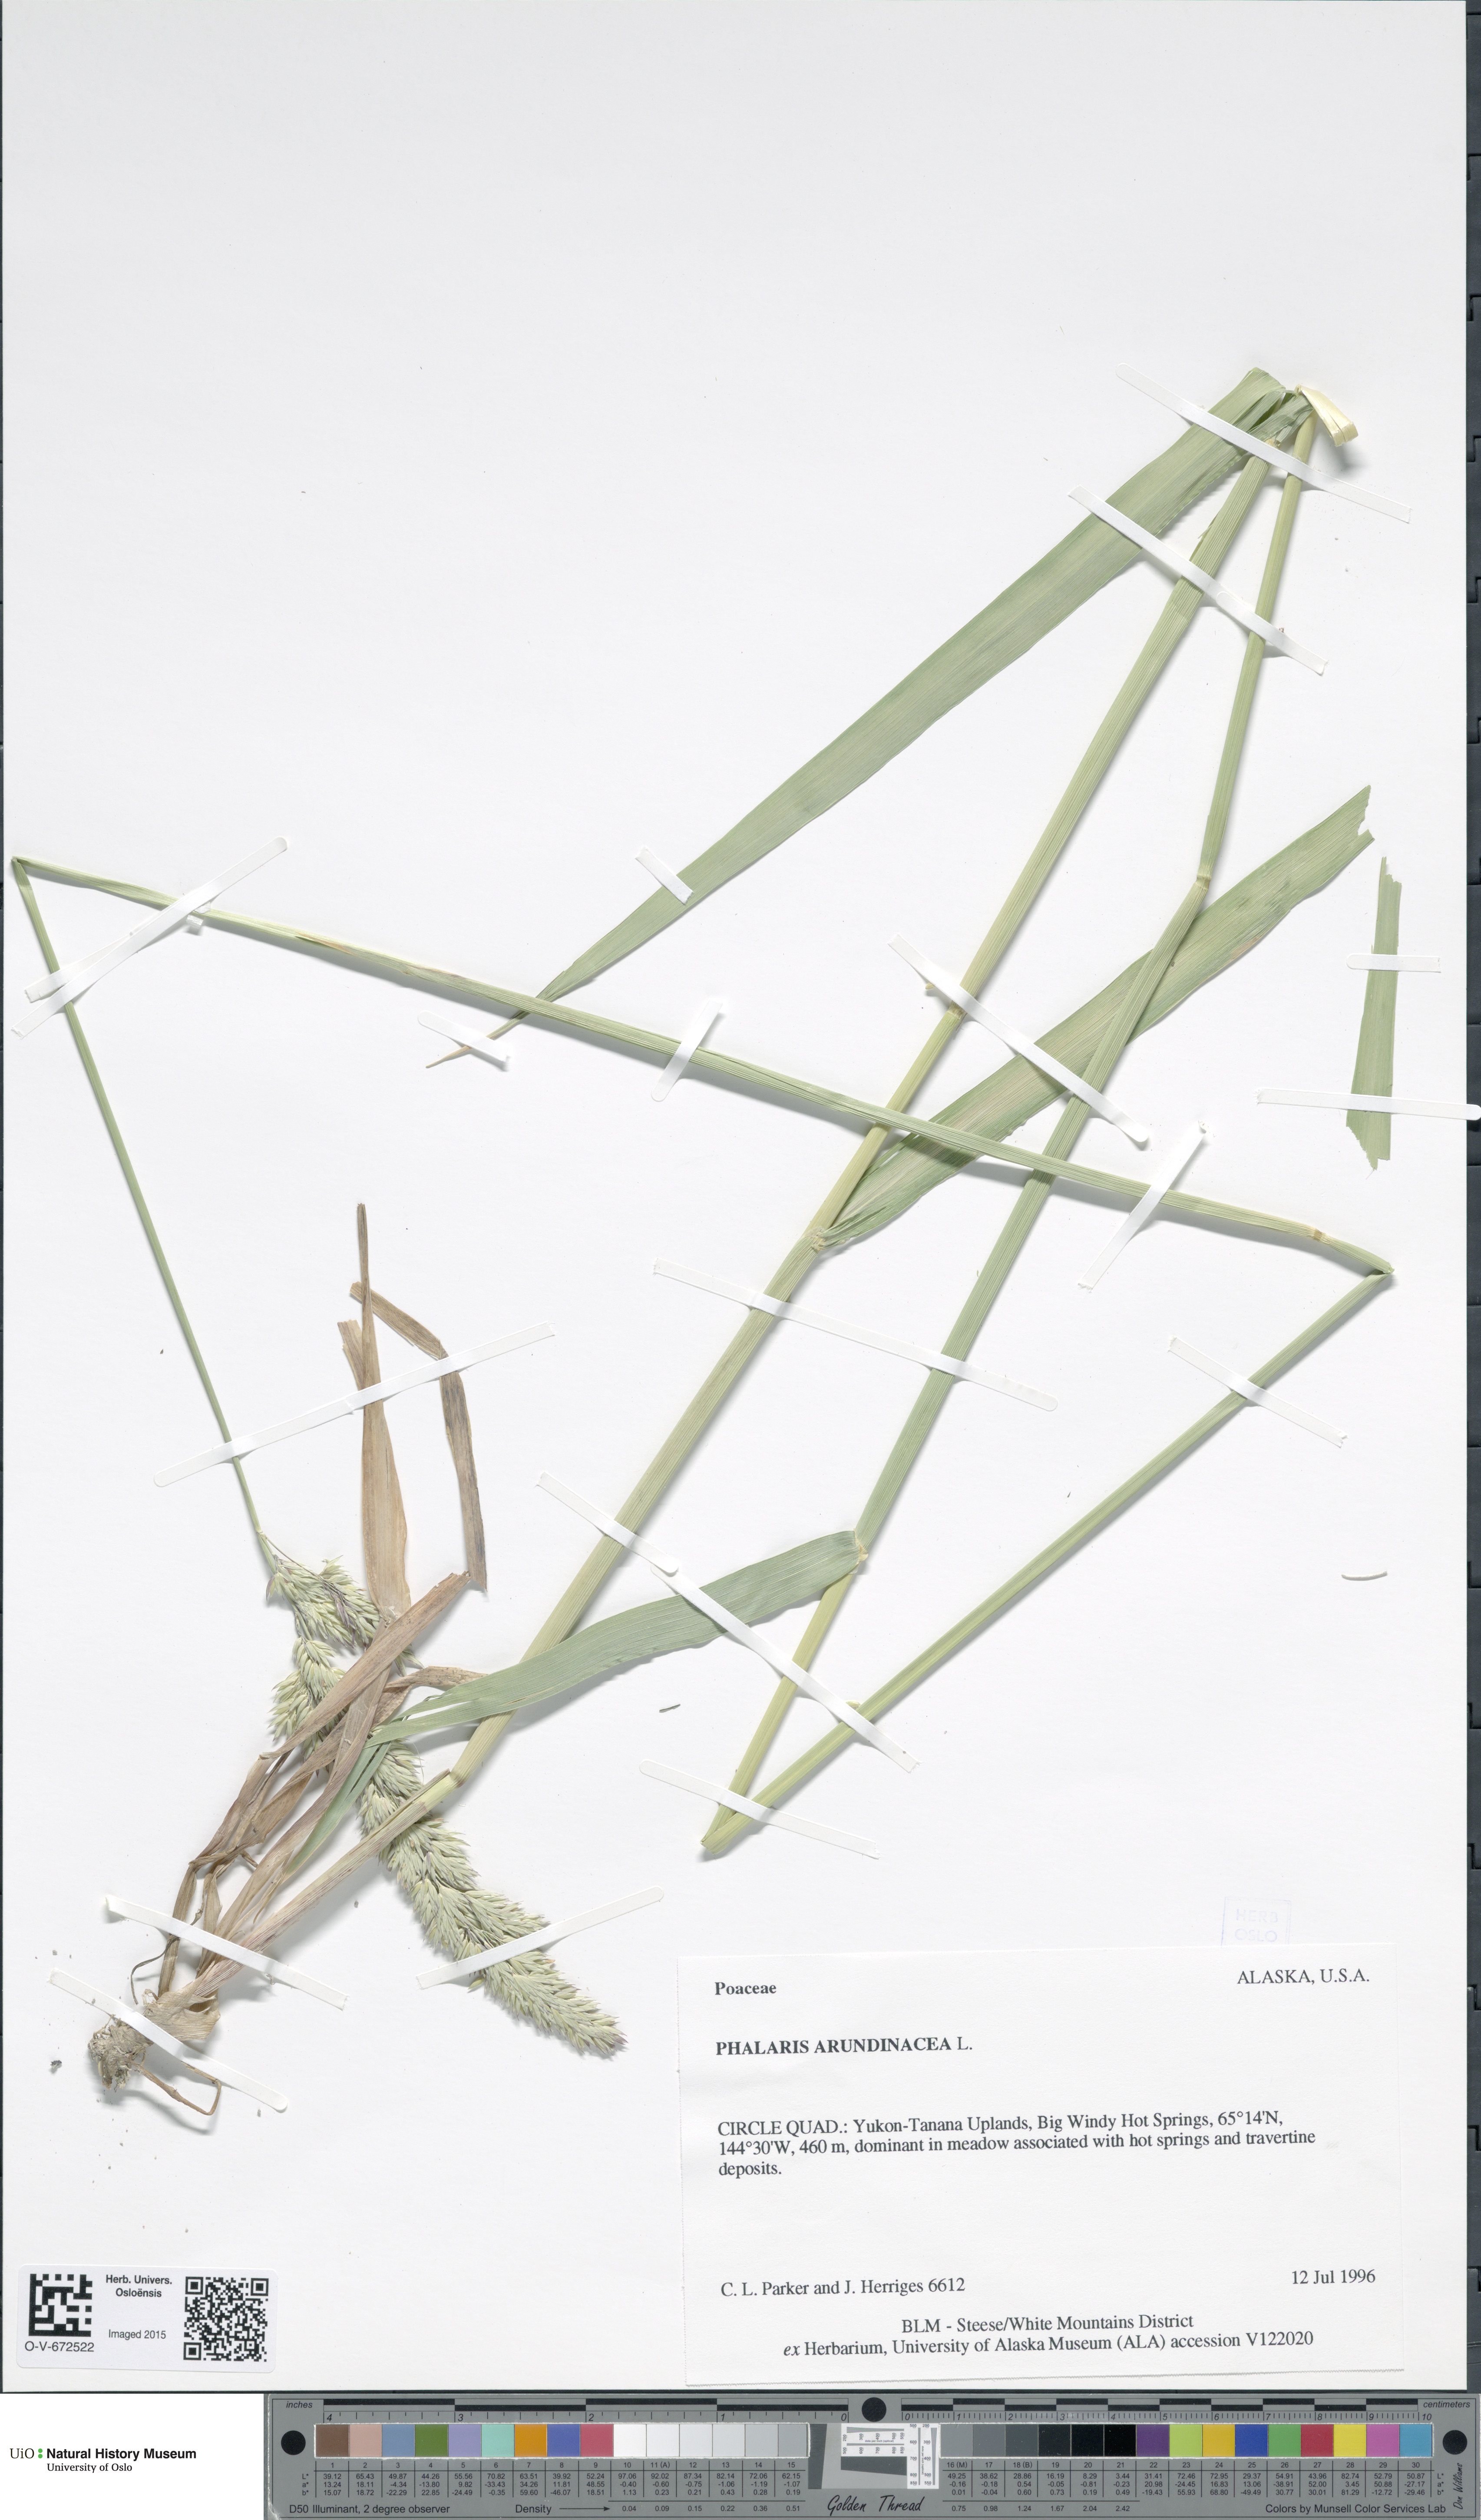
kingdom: Plantae
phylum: Tracheophyta
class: Liliopsida
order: Poales
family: Poaceae
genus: Phalaris
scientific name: Phalaris arundinacea
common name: Reed canary-grass
